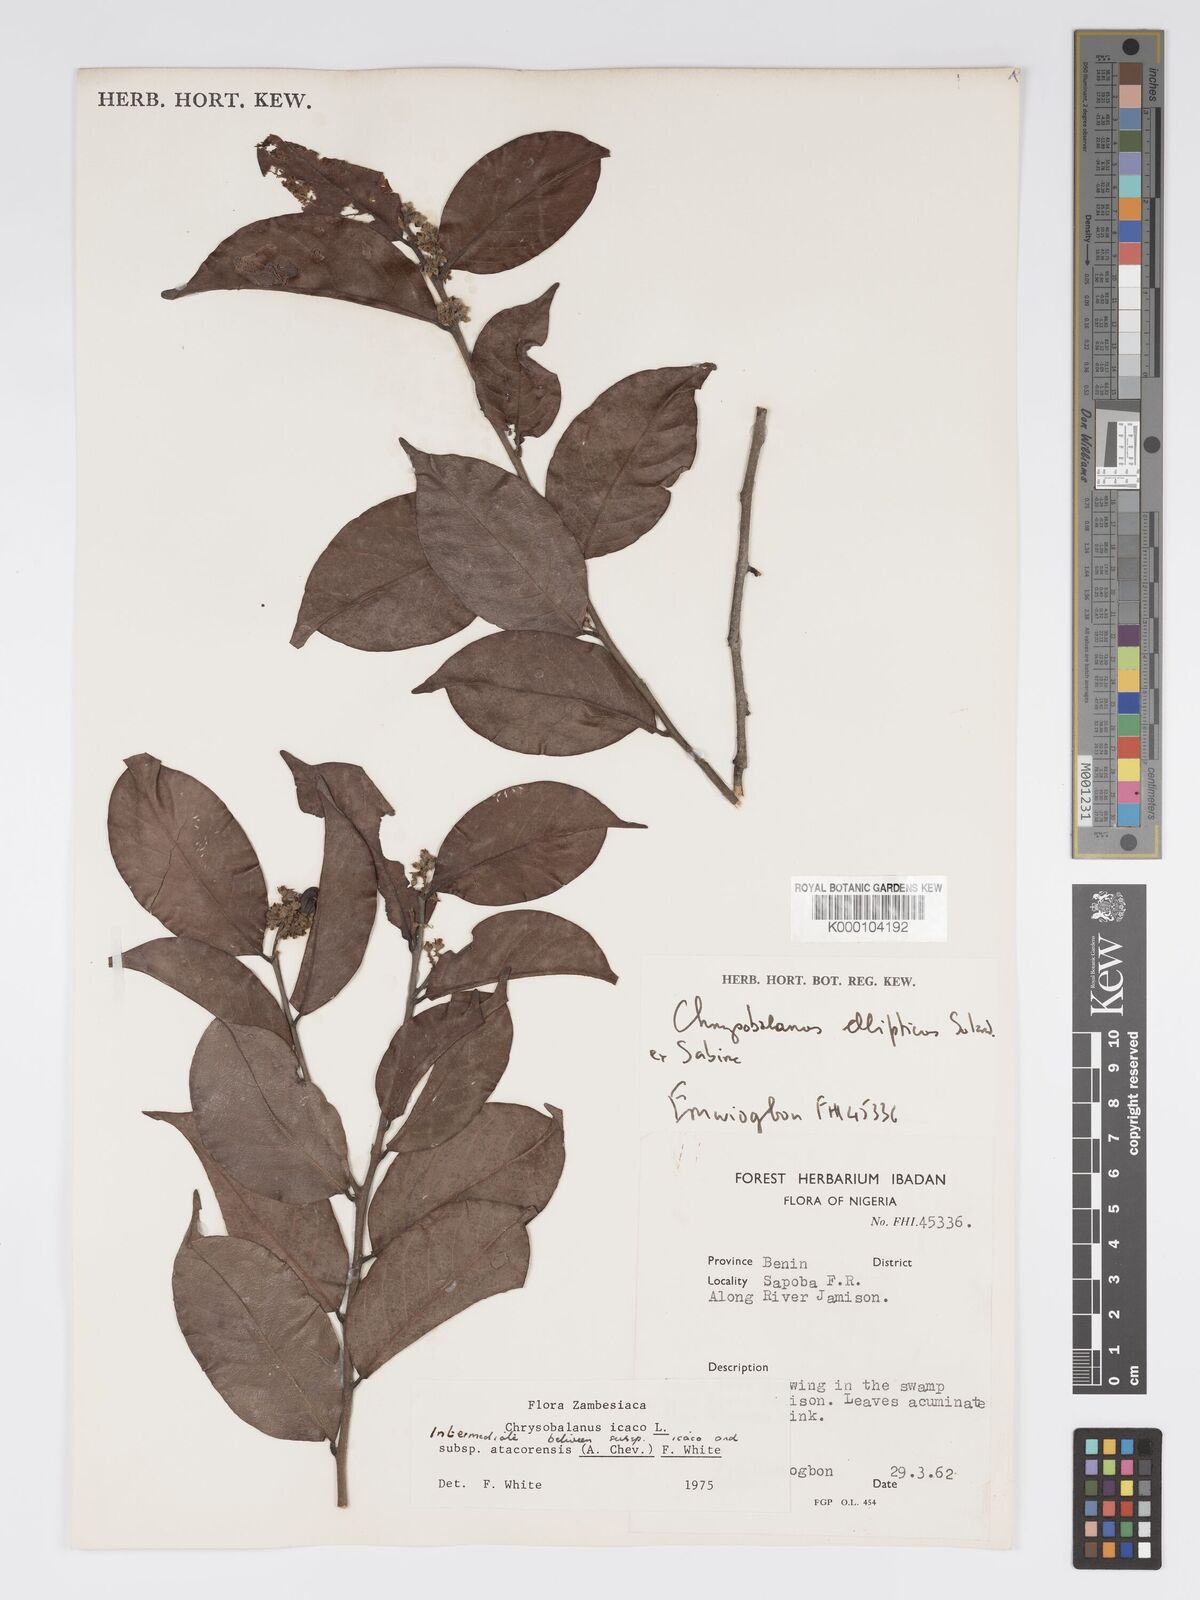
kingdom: Plantae
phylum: Tracheophyta
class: Magnoliopsida
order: Malpighiales
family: Chrysobalanaceae
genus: Chrysobalanus
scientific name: Chrysobalanus icaco
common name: Coco plum
